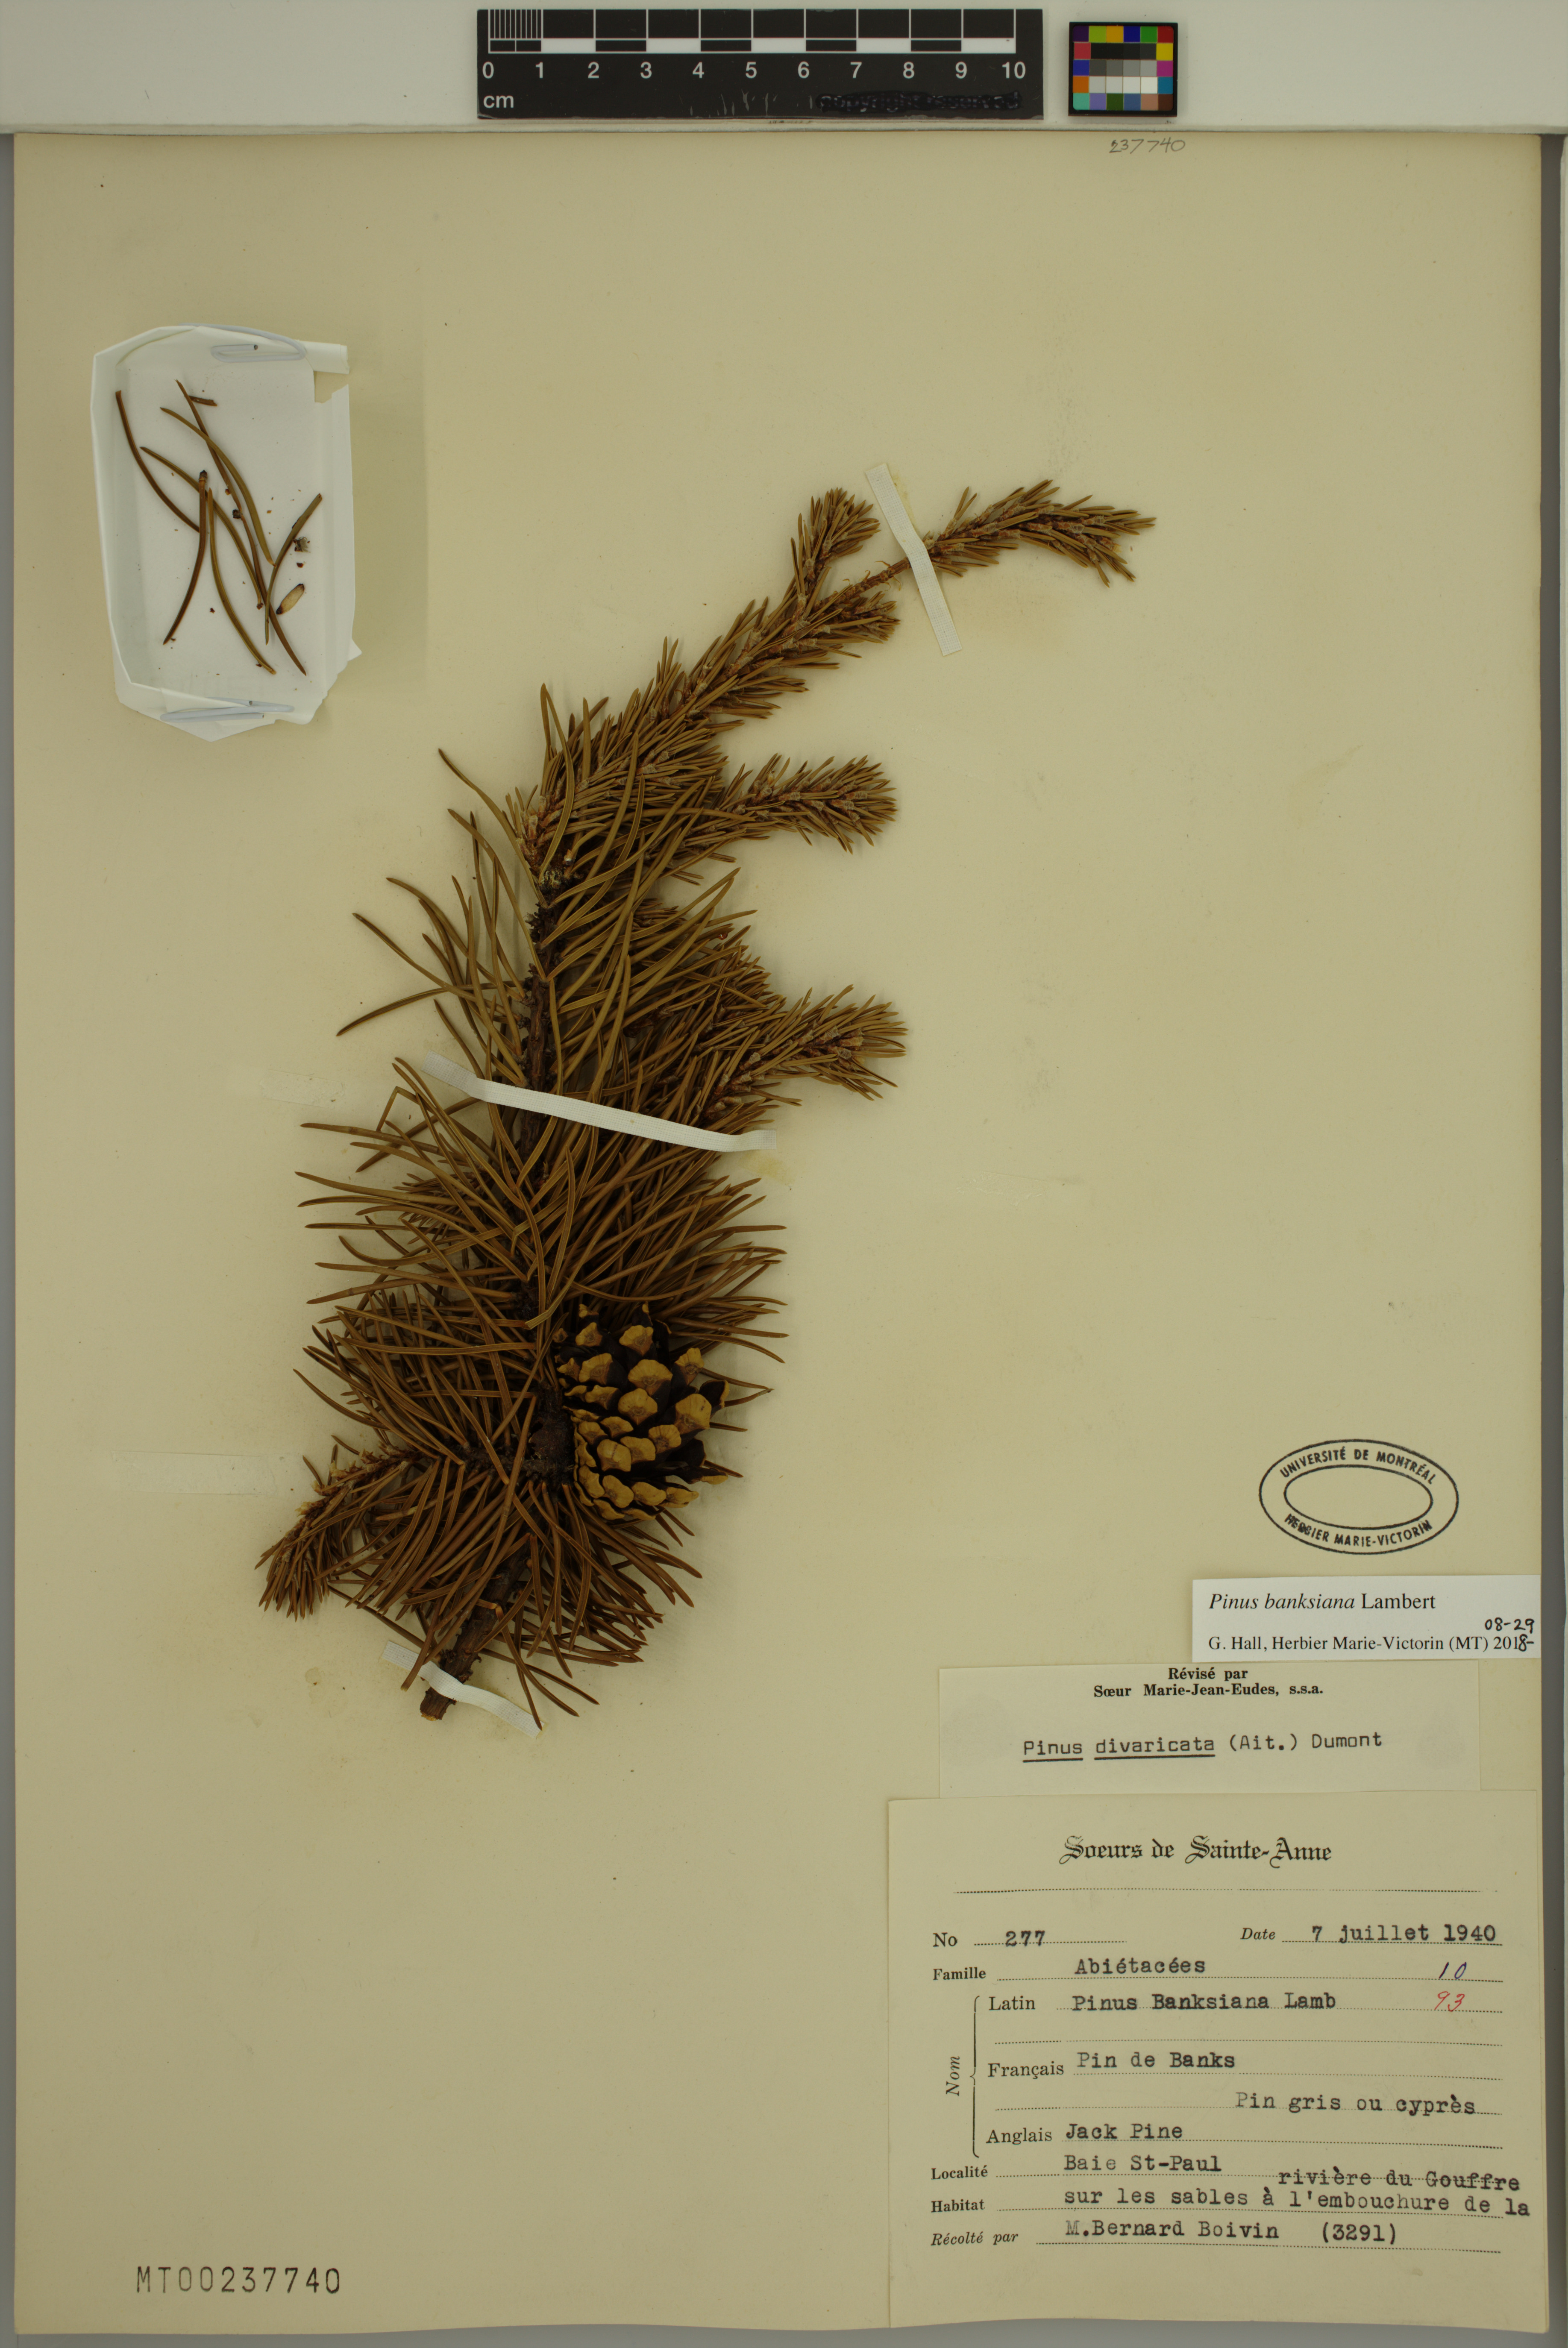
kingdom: Plantae
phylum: Tracheophyta
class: Pinopsida
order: Pinales
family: Pinaceae
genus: Pinus
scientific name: Pinus banksiana
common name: Jack pine
